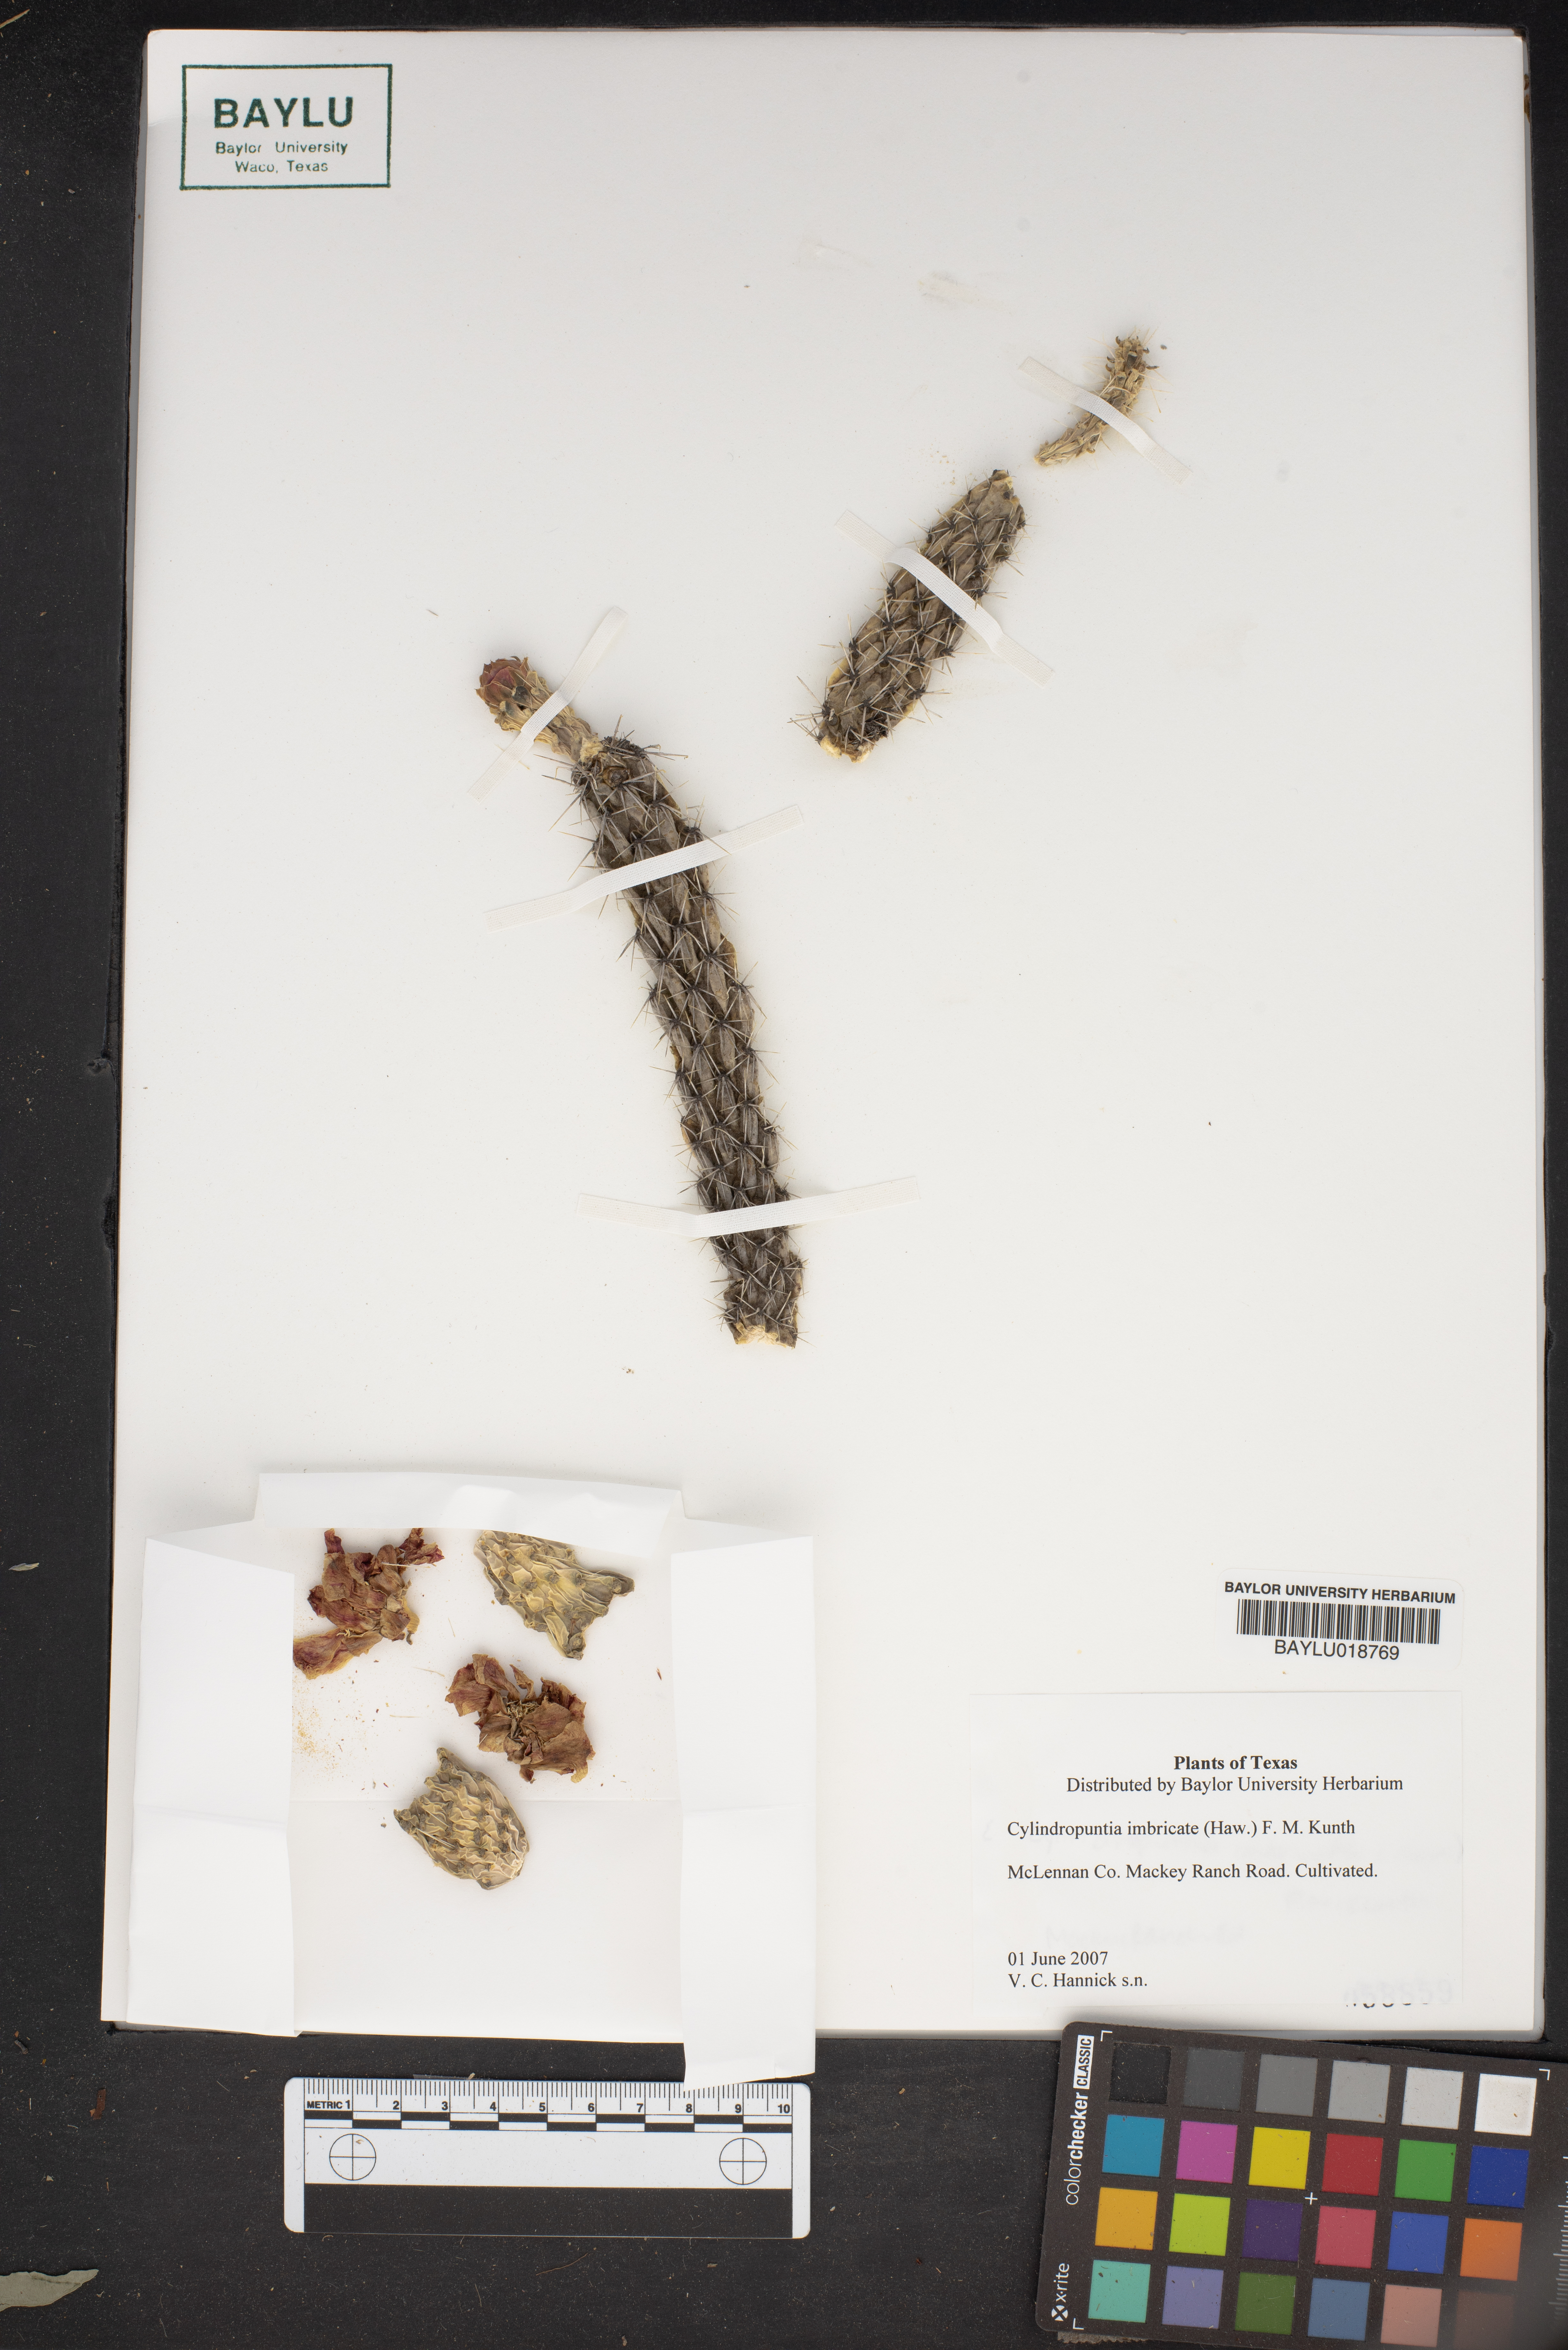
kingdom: Plantae
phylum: Tracheophyta
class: Magnoliopsida
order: Caryophyllales
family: Cactaceae
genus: Cylindropuntia
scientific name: Cylindropuntia imbricata
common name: Candelabrum cactus
